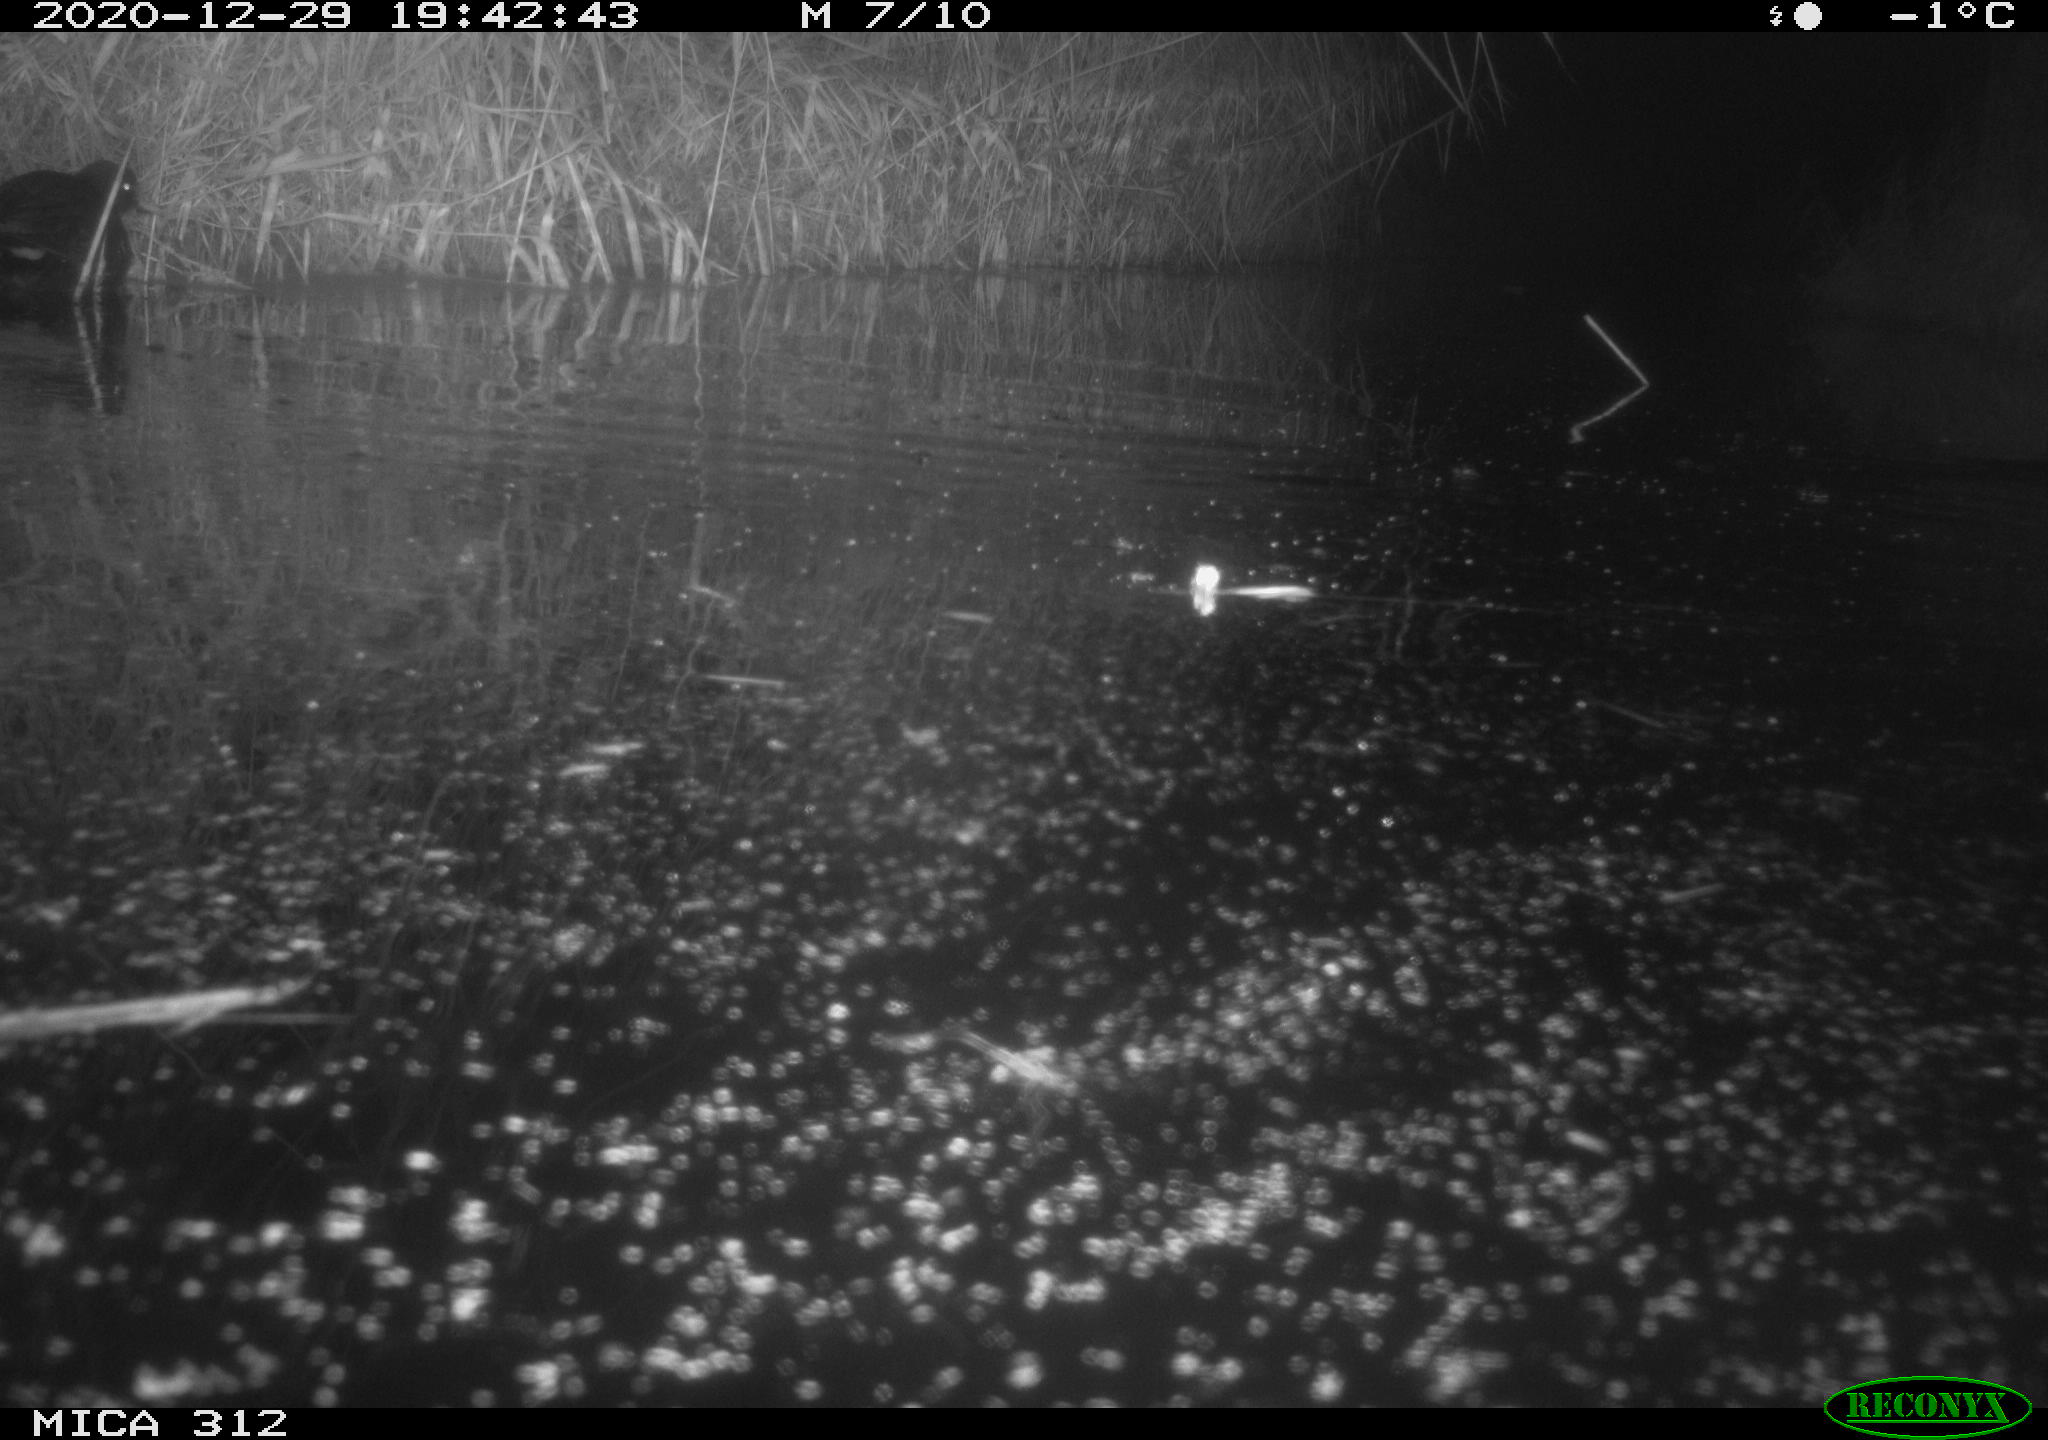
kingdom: Animalia
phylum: Chordata
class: Mammalia
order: Rodentia
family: Muridae
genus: Rattus
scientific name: Rattus norvegicus
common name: Brown rat
